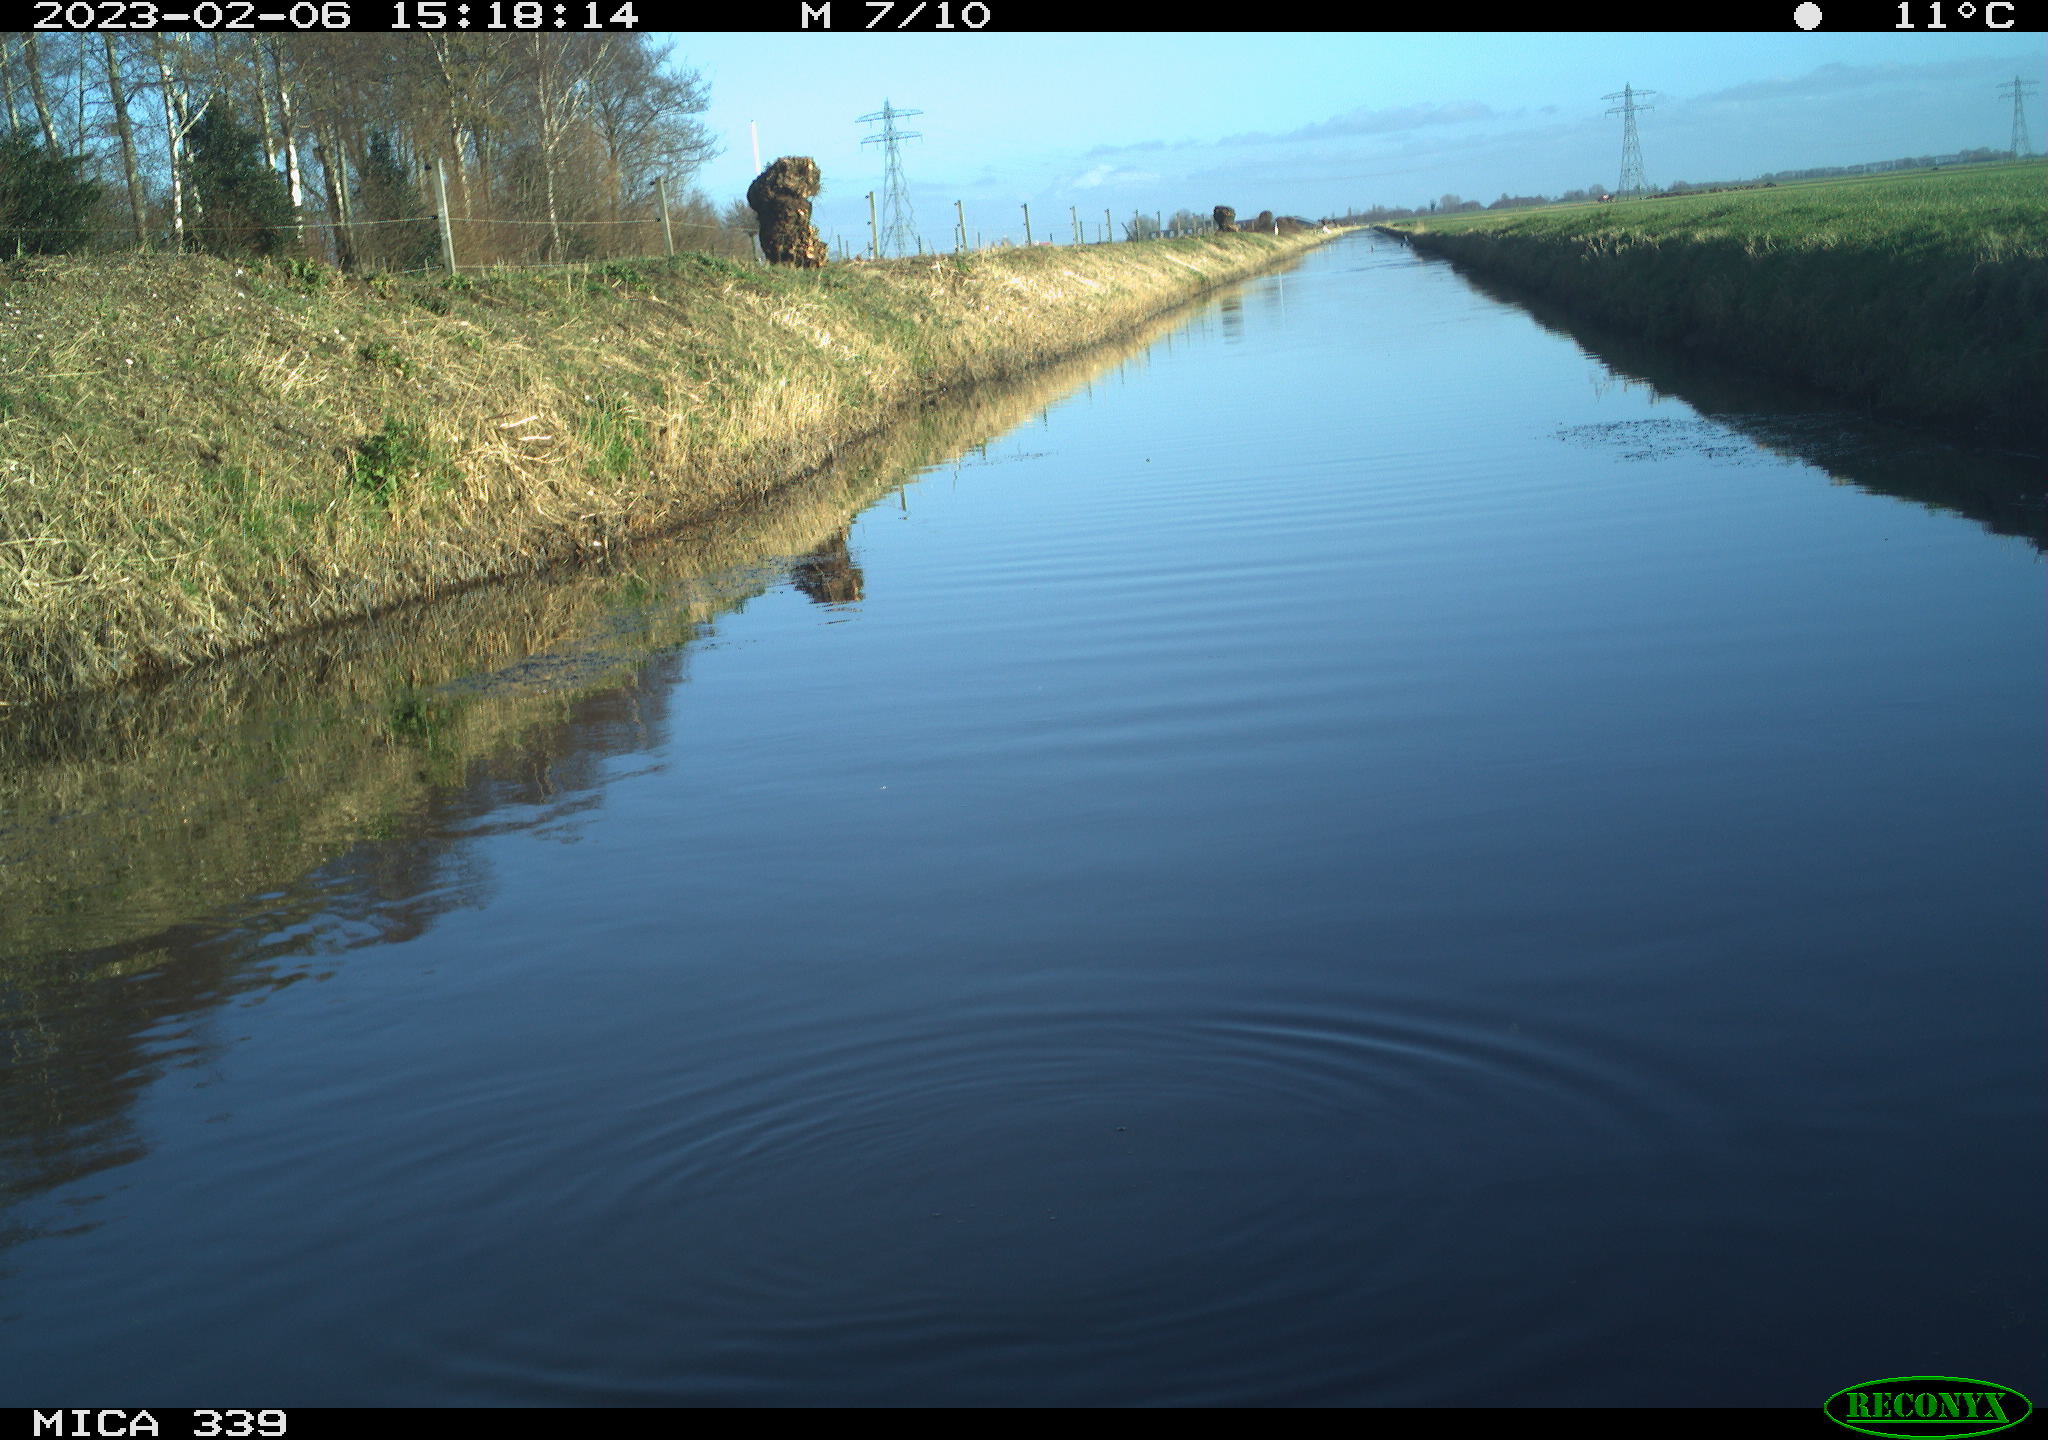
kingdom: Animalia
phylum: Chordata
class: Aves
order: Pelecaniformes
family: Ardeidae
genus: Ardea
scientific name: Ardea cinerea
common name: Grey heron
